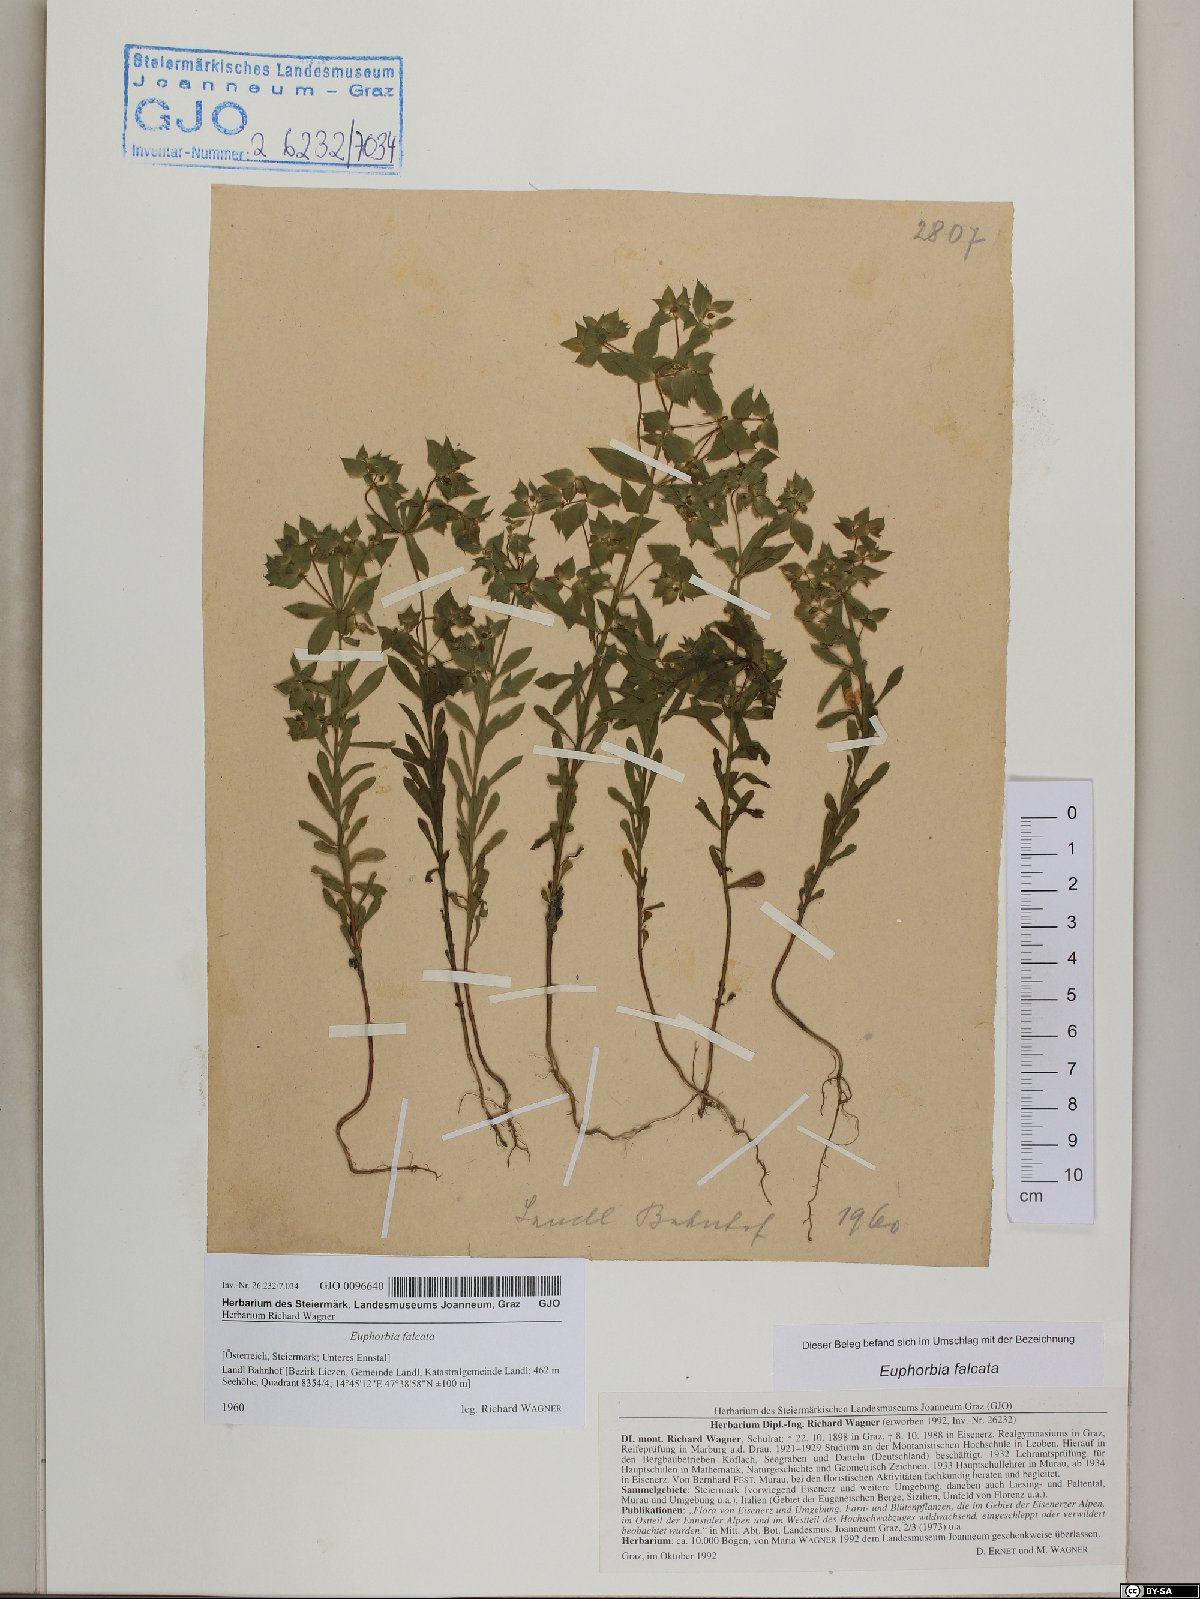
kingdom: Plantae
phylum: Tracheophyta
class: Magnoliopsida
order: Malpighiales
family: Euphorbiaceae
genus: Euphorbia
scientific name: Euphorbia falcata
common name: Sickle spurge
